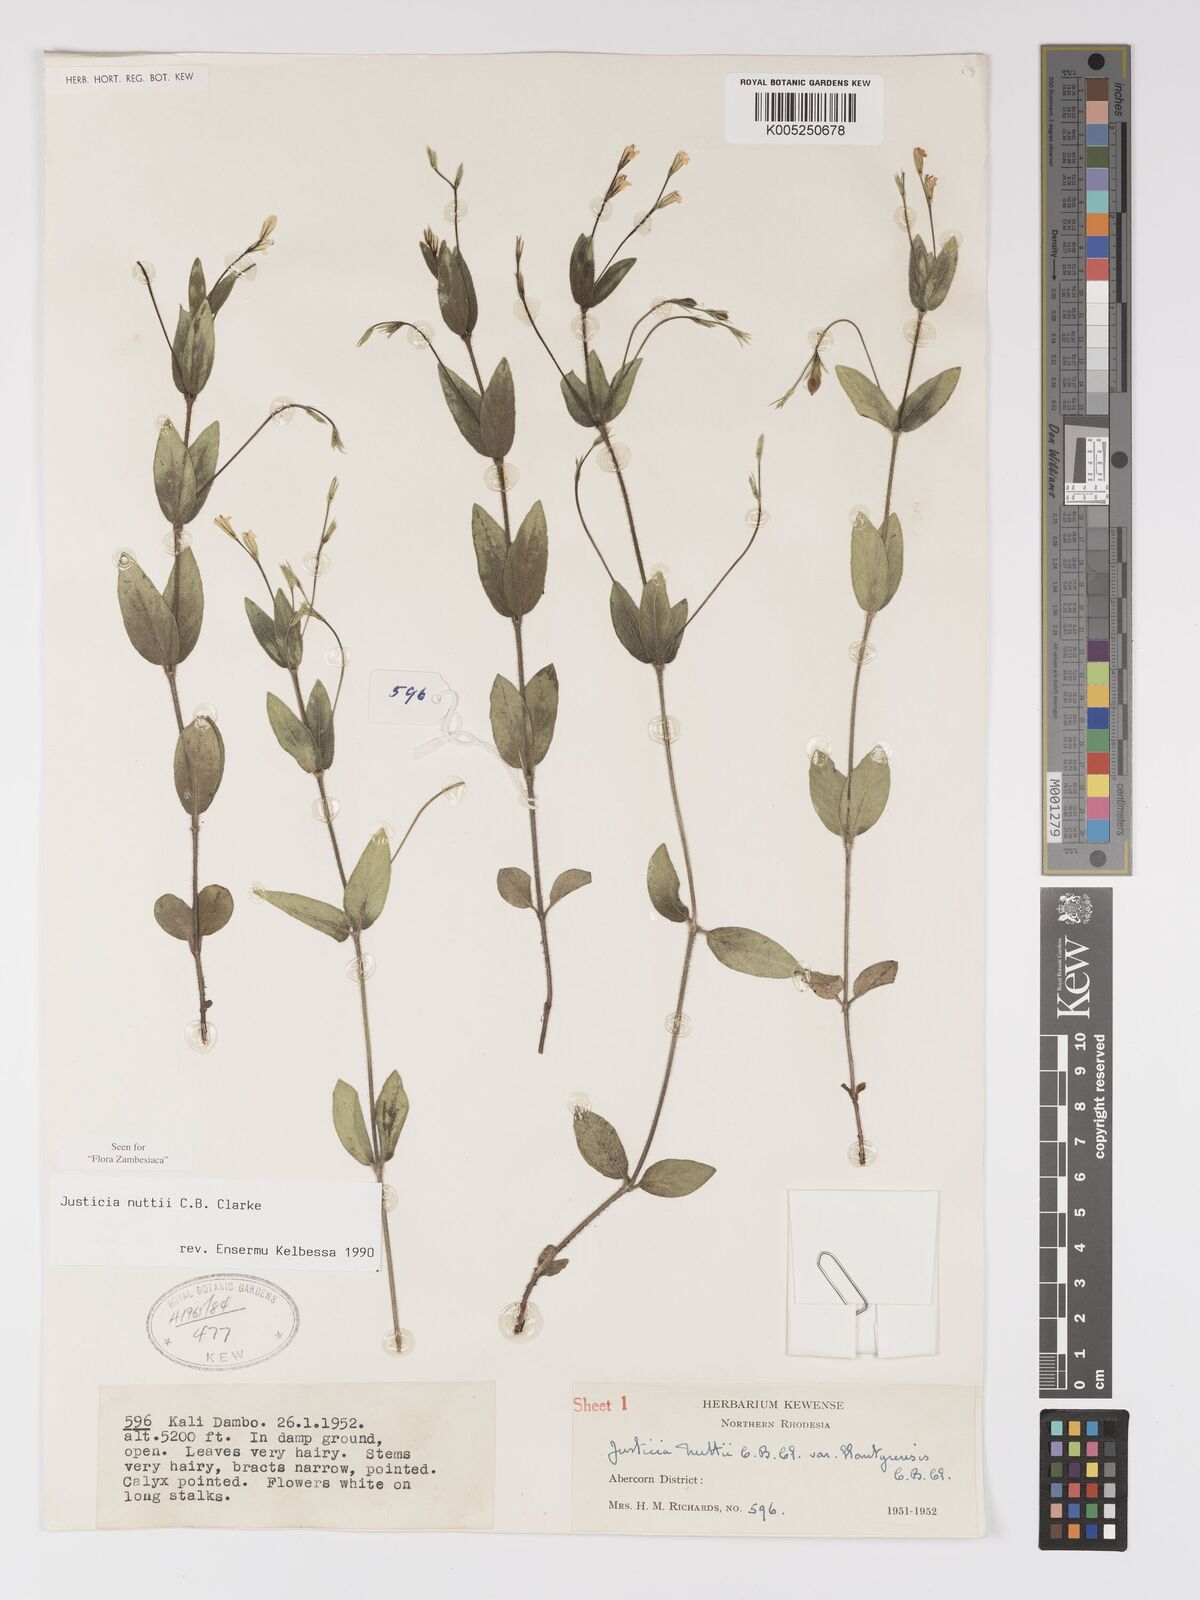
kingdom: Plantae
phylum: Tracheophyta
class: Magnoliopsida
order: Lamiales
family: Acanthaceae
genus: Justicia
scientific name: Justicia nuttii
